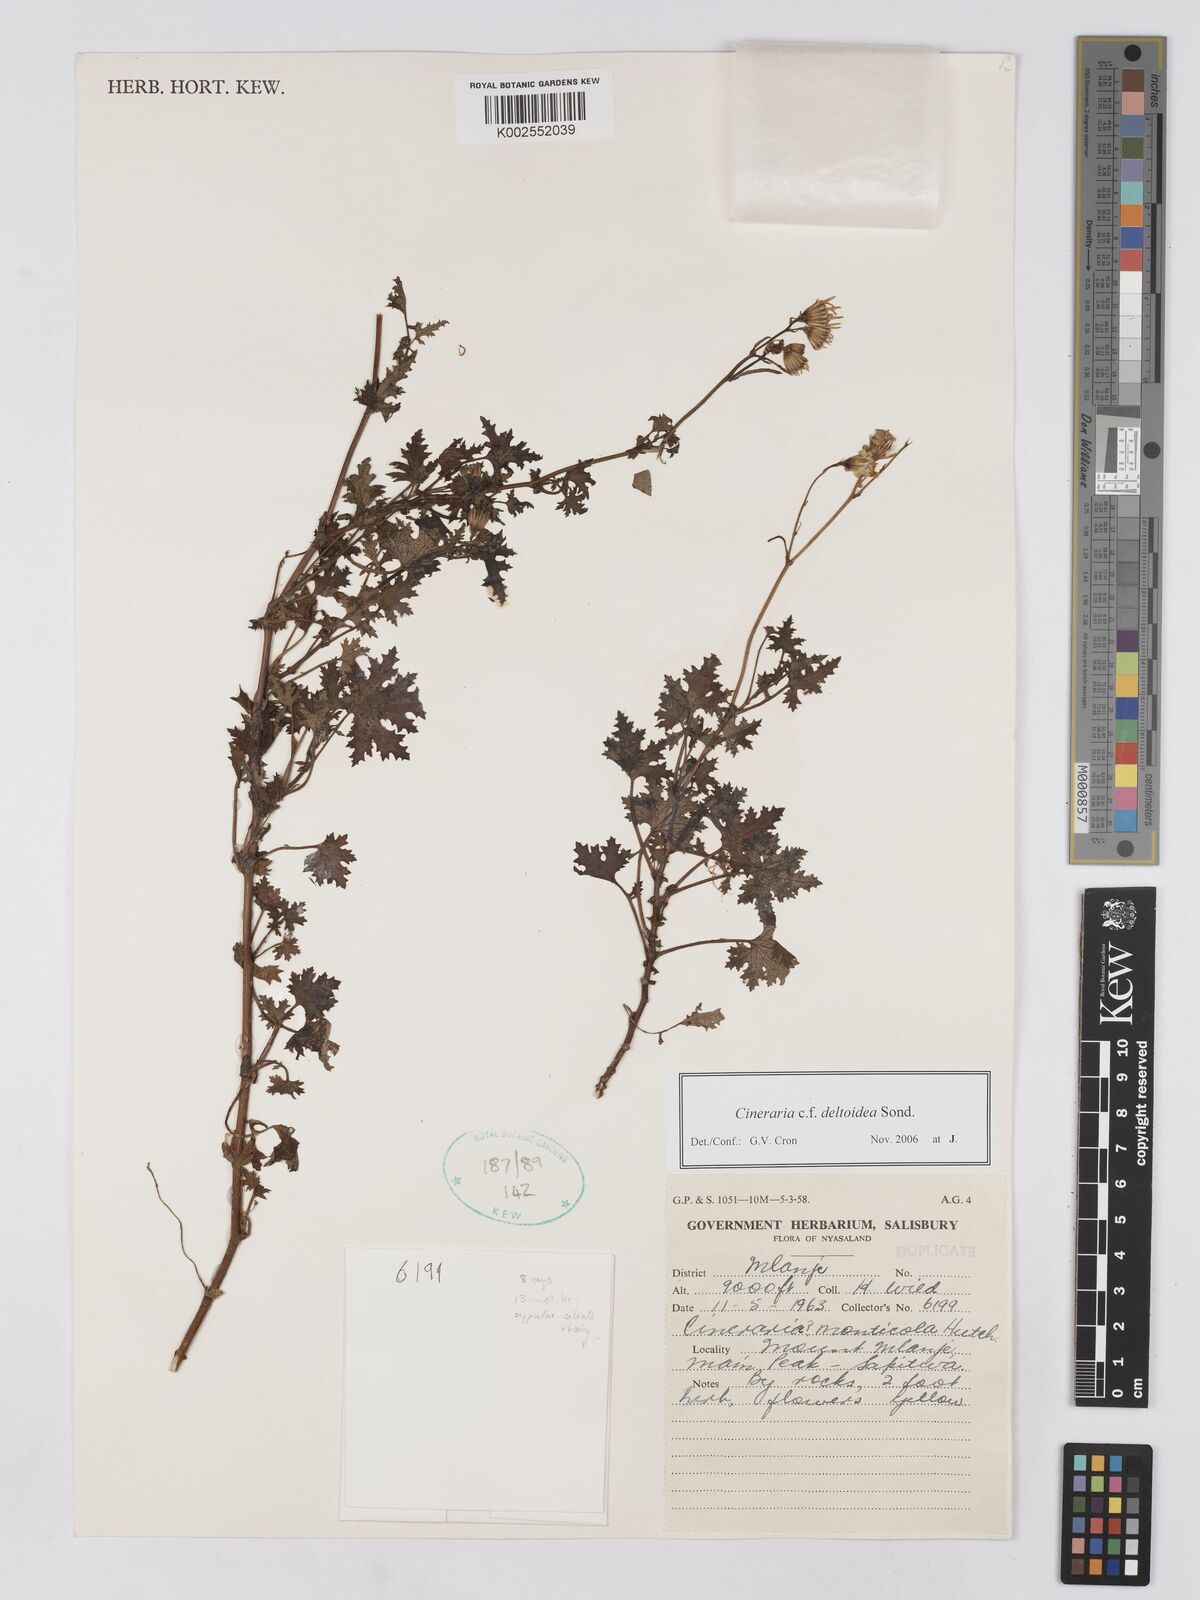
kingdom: Plantae
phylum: Tracheophyta
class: Magnoliopsida
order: Asterales
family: Asteraceae
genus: Cineraria
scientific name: Cineraria deltoidea
